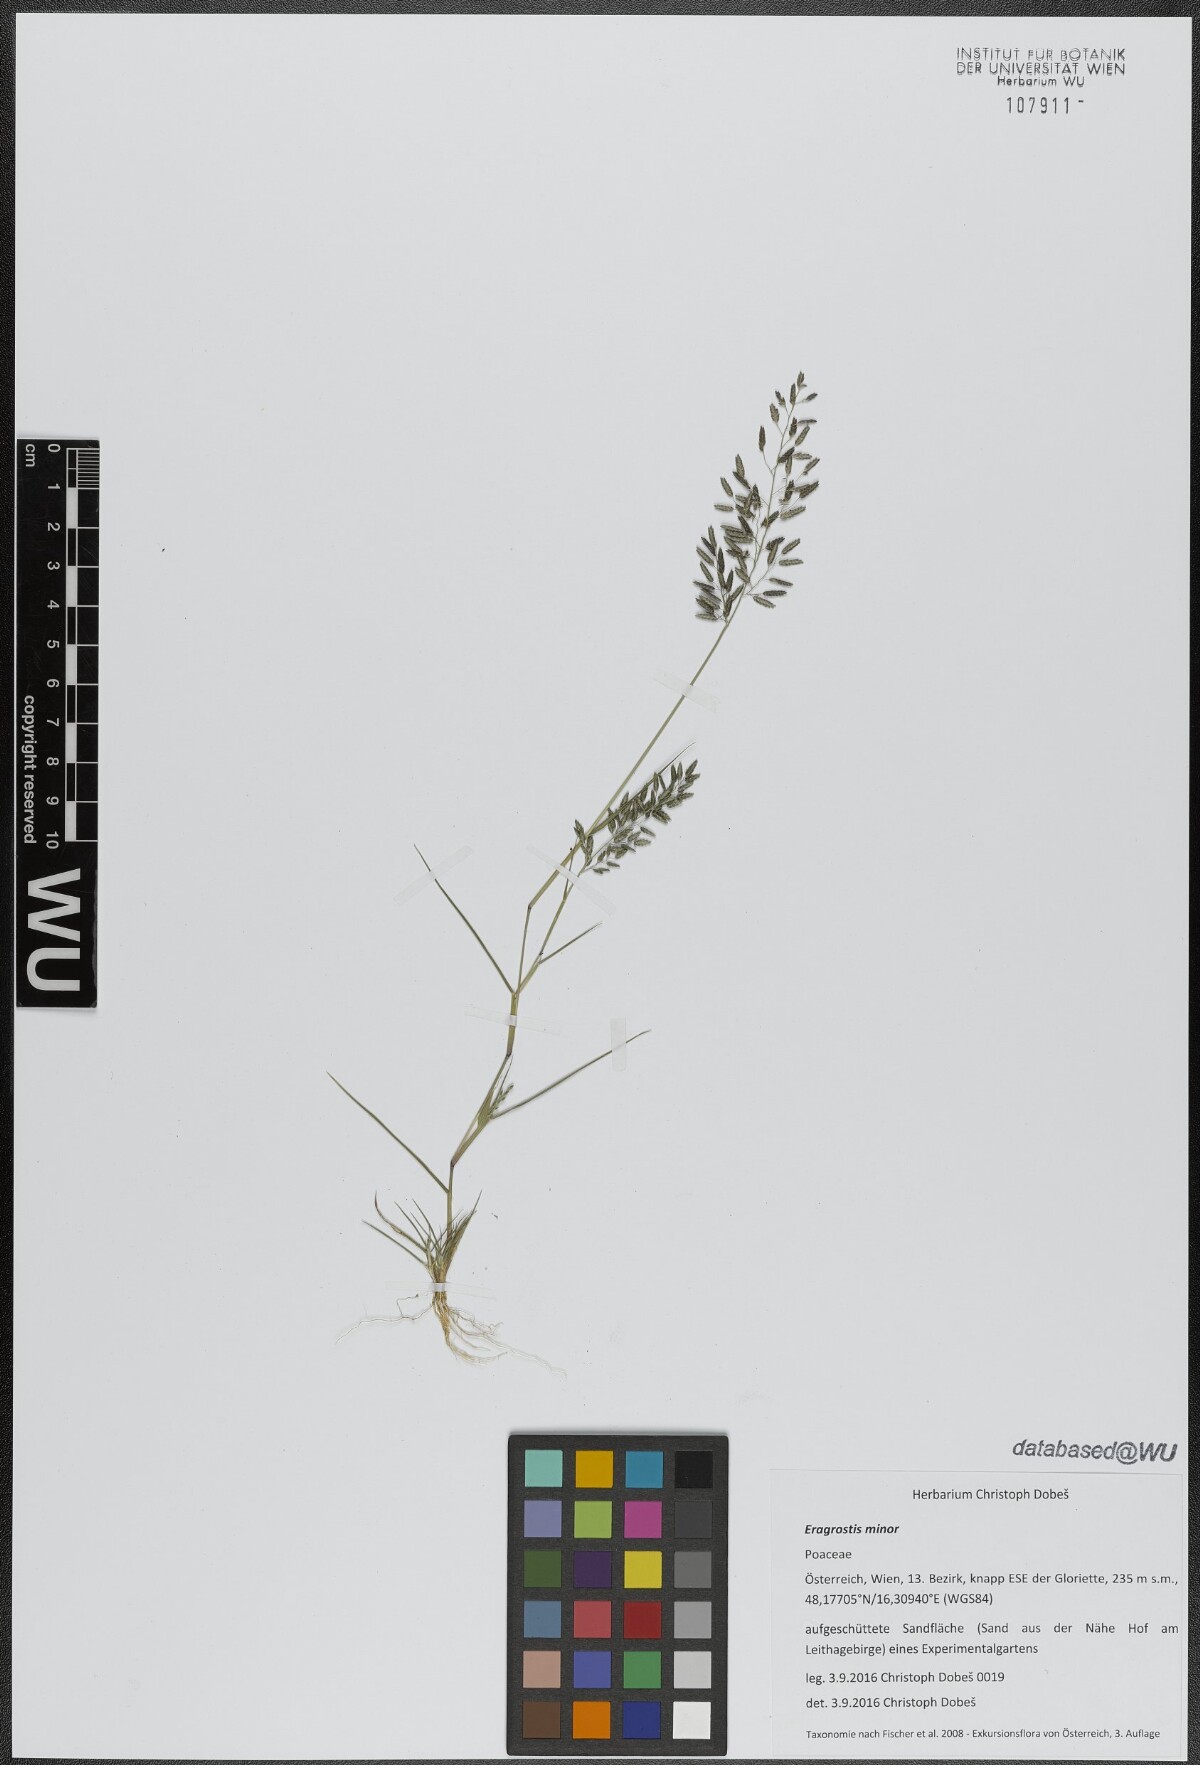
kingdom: Plantae
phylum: Tracheophyta
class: Liliopsida
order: Poales
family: Poaceae
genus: Eragrostis
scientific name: Eragrostis minor
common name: Small love-grass
